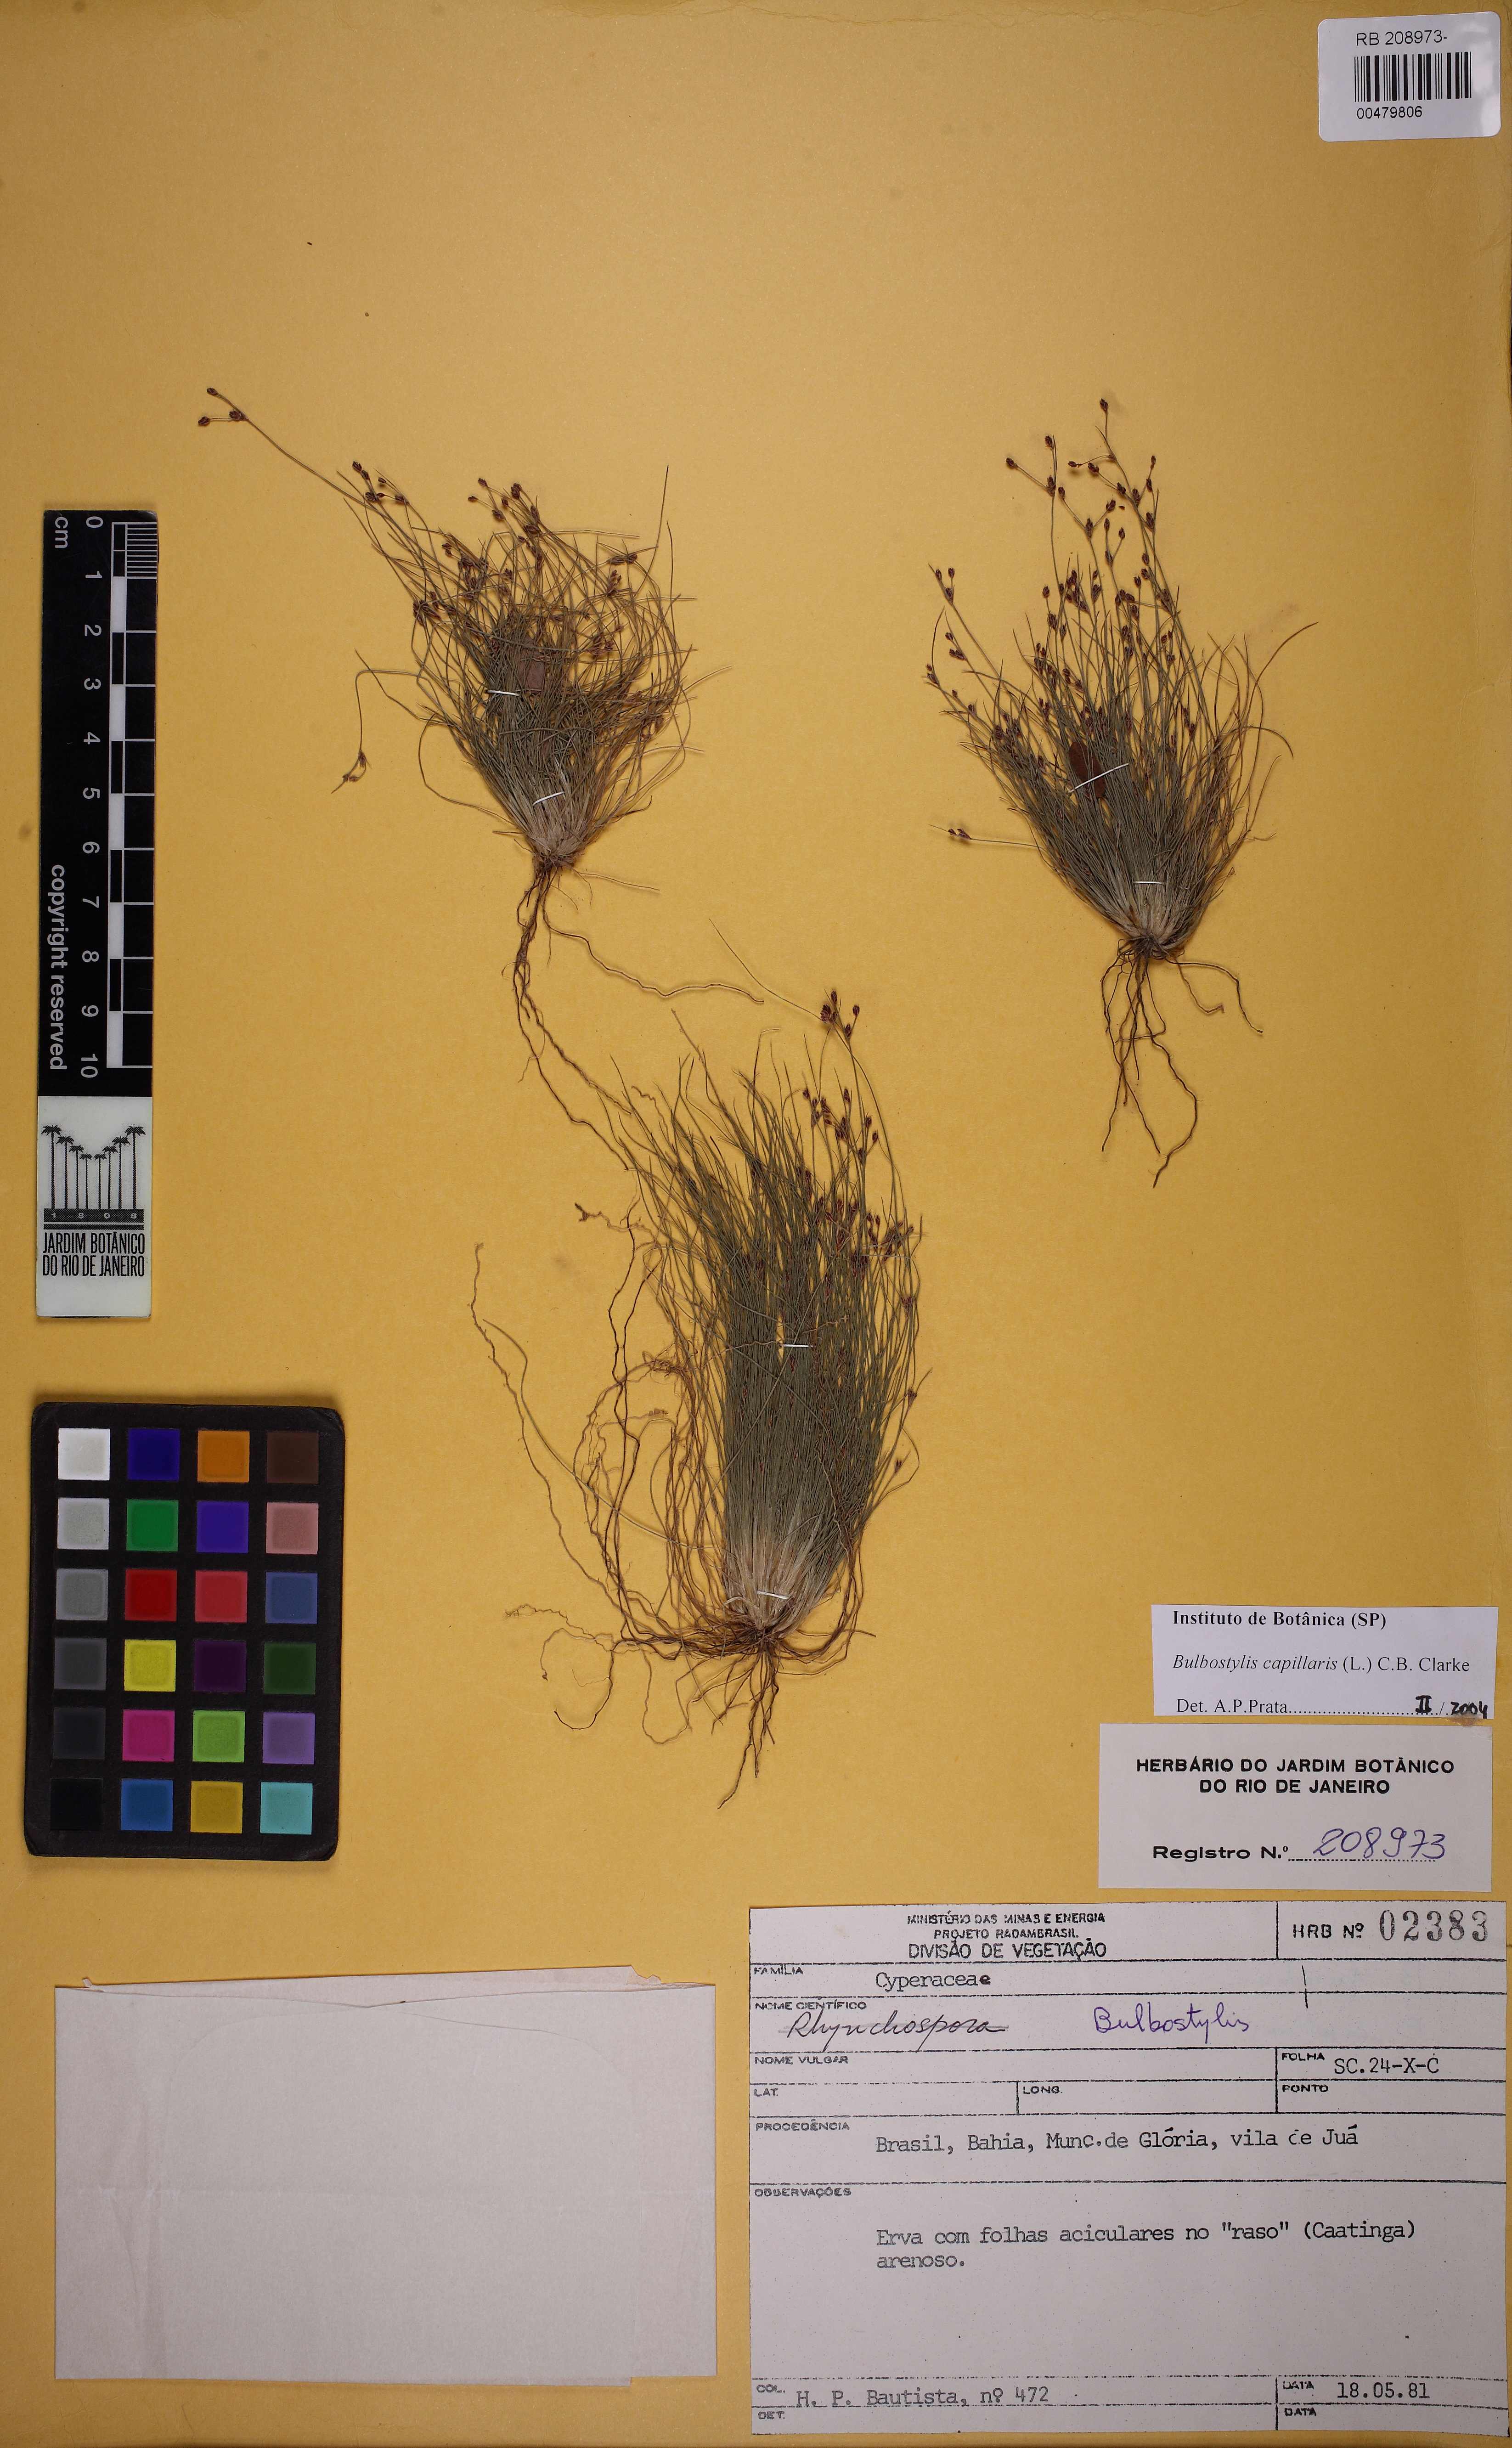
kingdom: Plantae
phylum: Tracheophyta
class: Liliopsida
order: Poales
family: Cyperaceae
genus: Bulbostylis
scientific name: Bulbostylis capillaris
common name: Densetuft hairsedge
